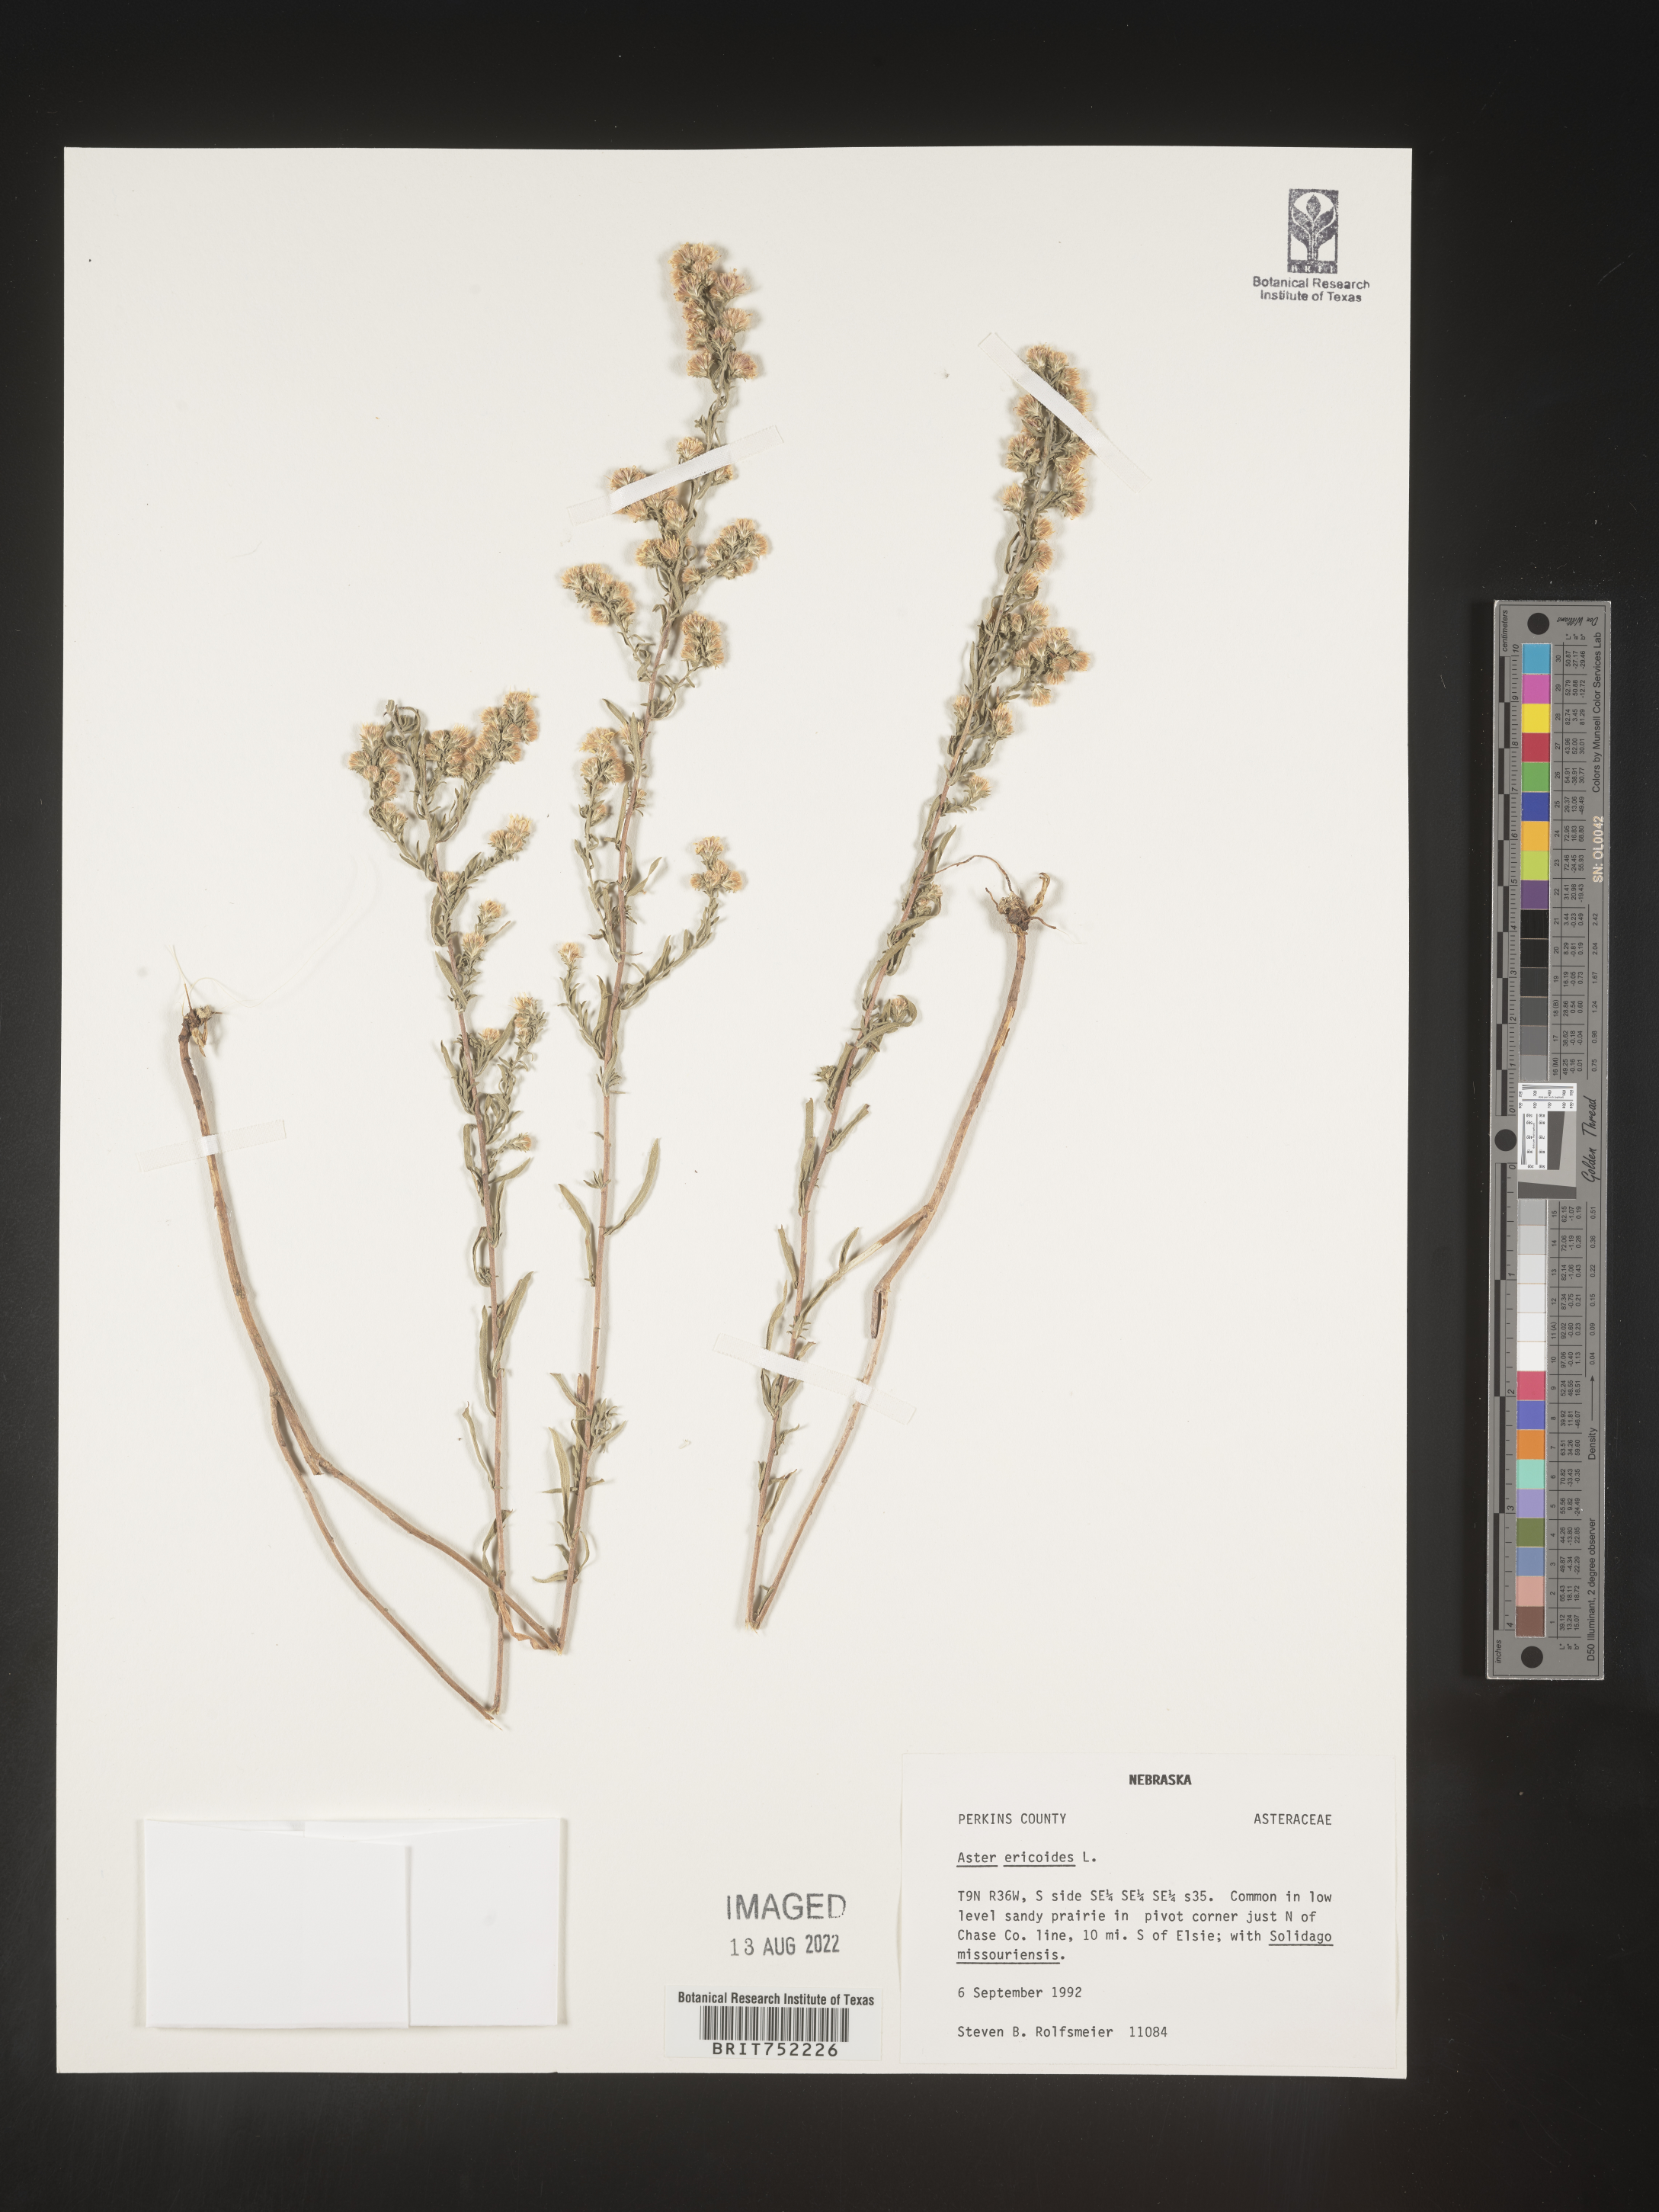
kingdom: Plantae
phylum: Tracheophyta
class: Magnoliopsida
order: Asterales
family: Asteraceae
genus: Symphyotrichum
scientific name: Symphyotrichum ericoides
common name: Heath aster
